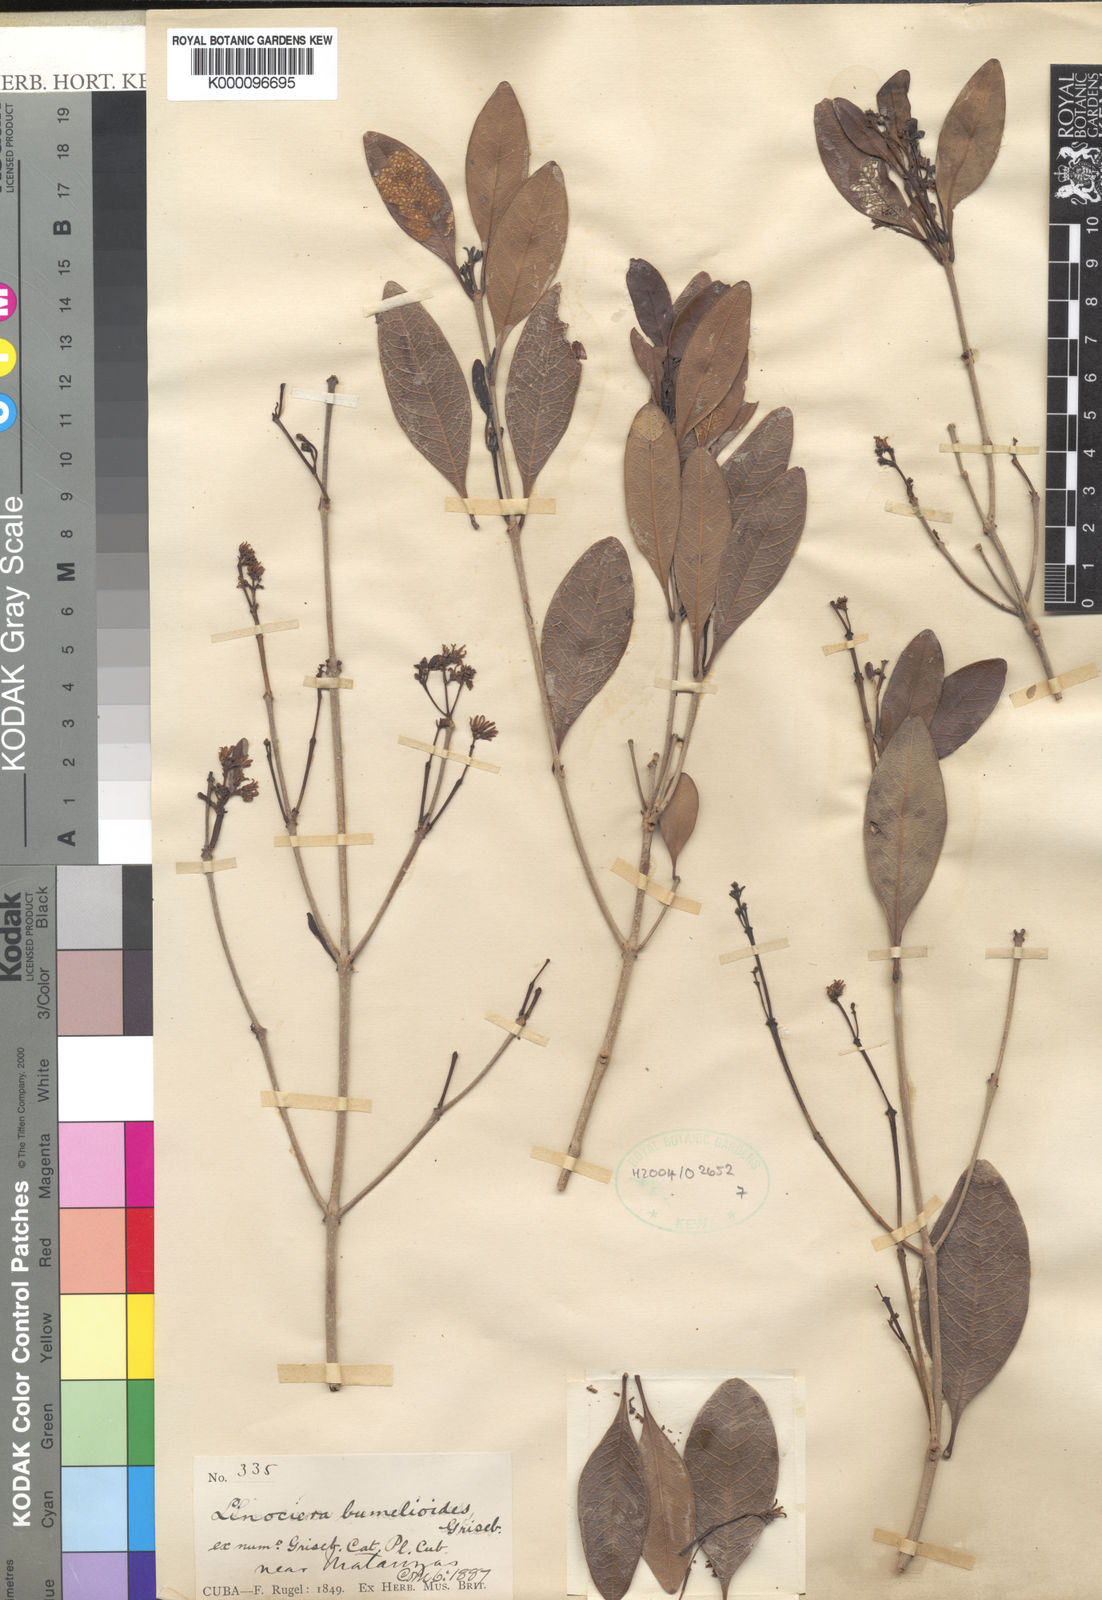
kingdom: Plantae
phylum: Tracheophyta
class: Magnoliopsida
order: Lamiales
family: Oleaceae
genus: Chionanthus
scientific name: Chionanthus bumelioides
